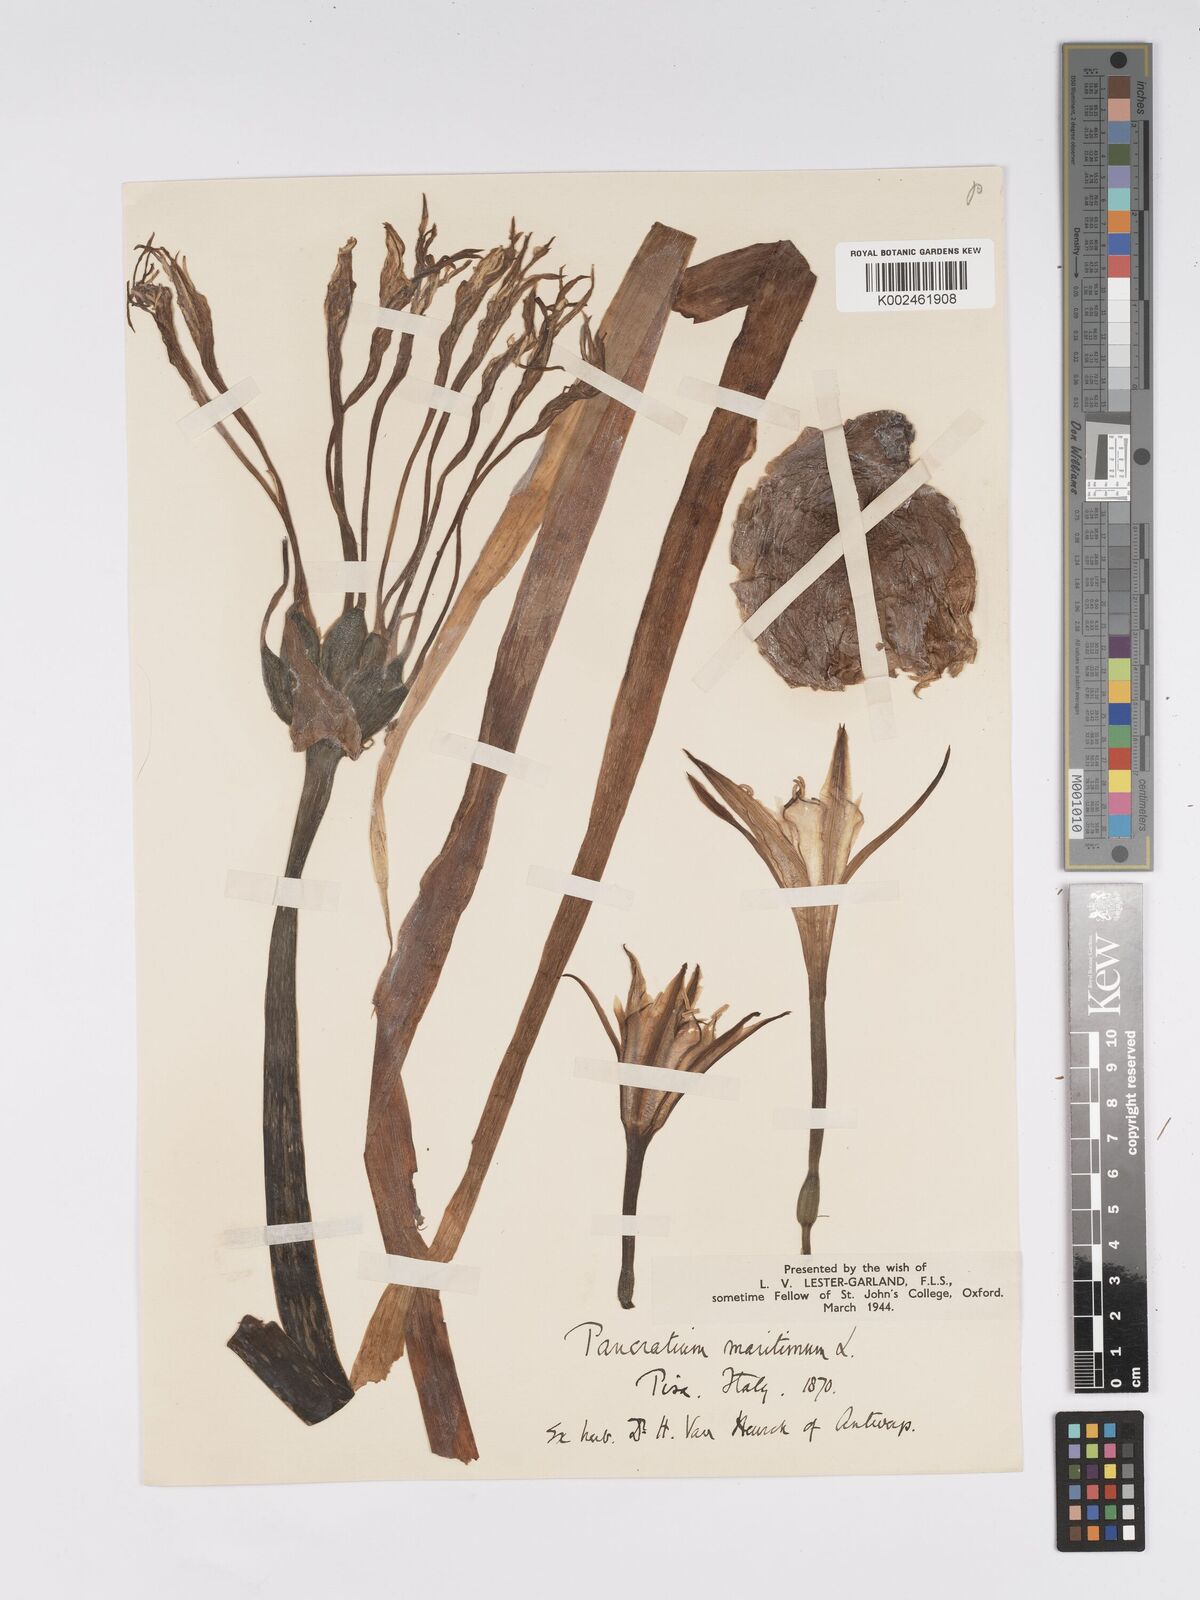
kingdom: Plantae
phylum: Tracheophyta
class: Liliopsida
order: Asparagales
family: Amaryllidaceae
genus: Pancratium
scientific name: Pancratium maritimum
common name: Sea-daffodil
